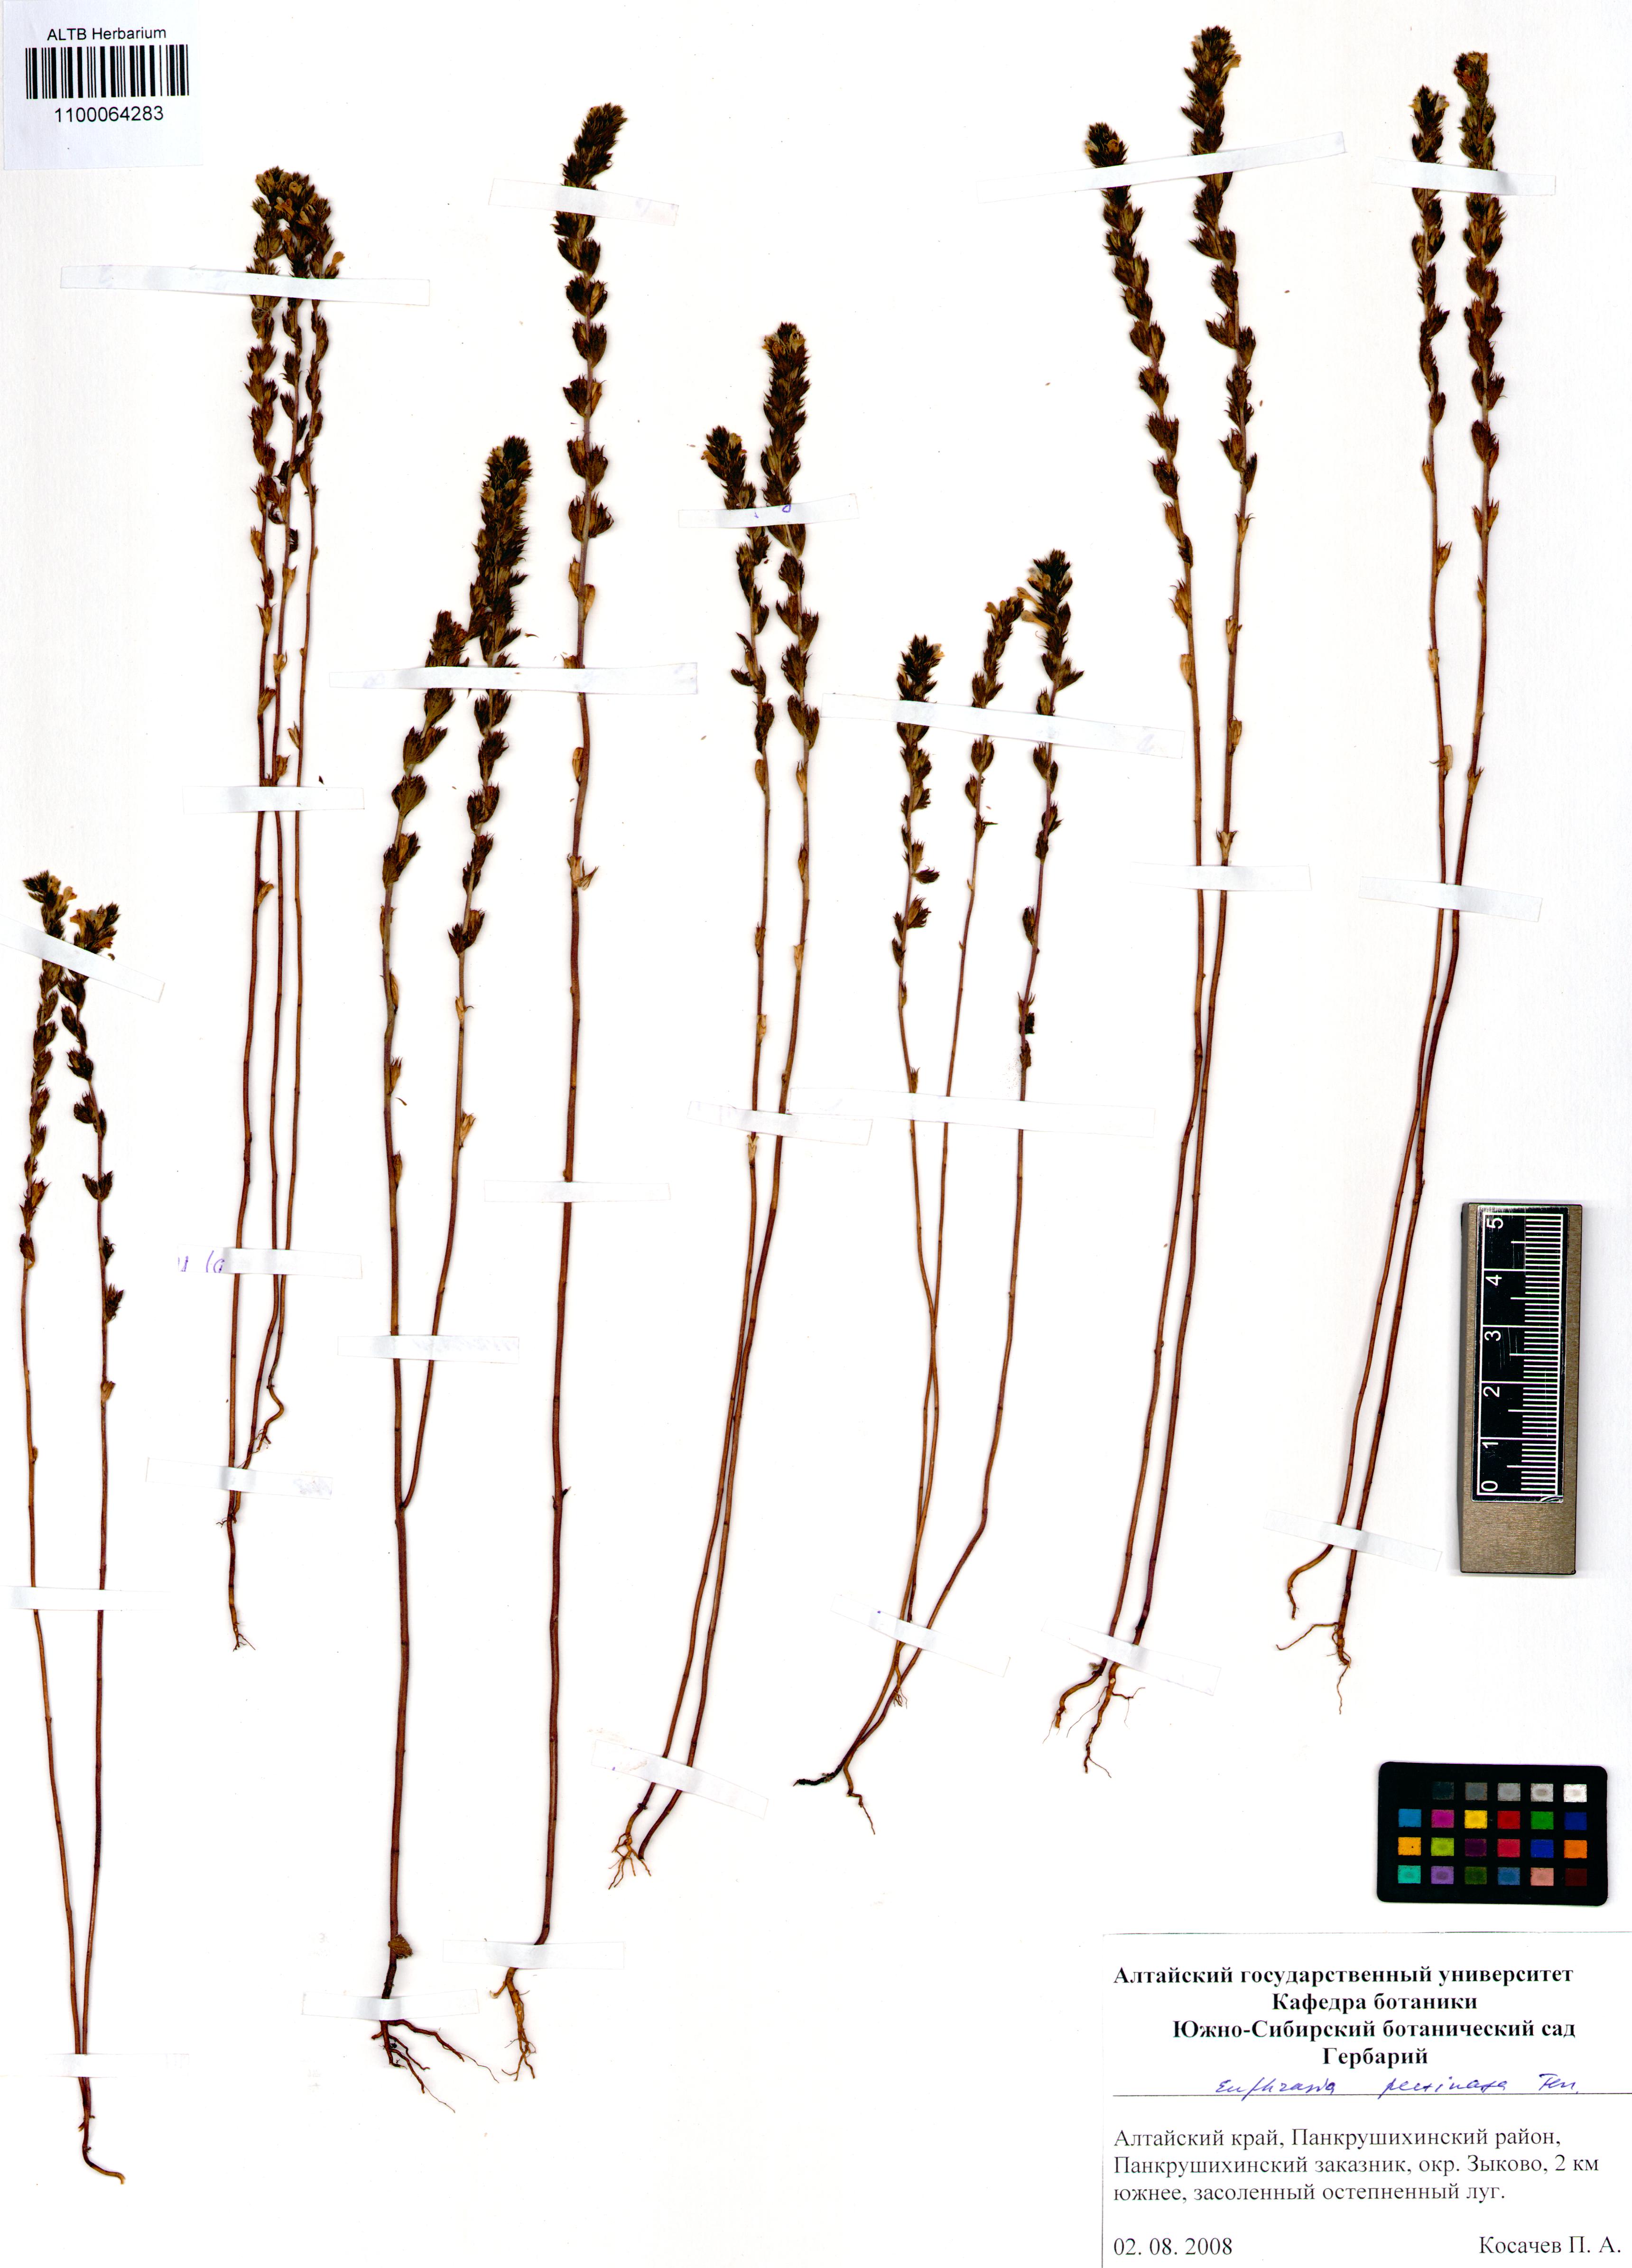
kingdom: Plantae
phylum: Tracheophyta
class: Magnoliopsida
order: Lamiales
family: Orobanchaceae
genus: Euphrasia
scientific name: Euphrasia pectinata
